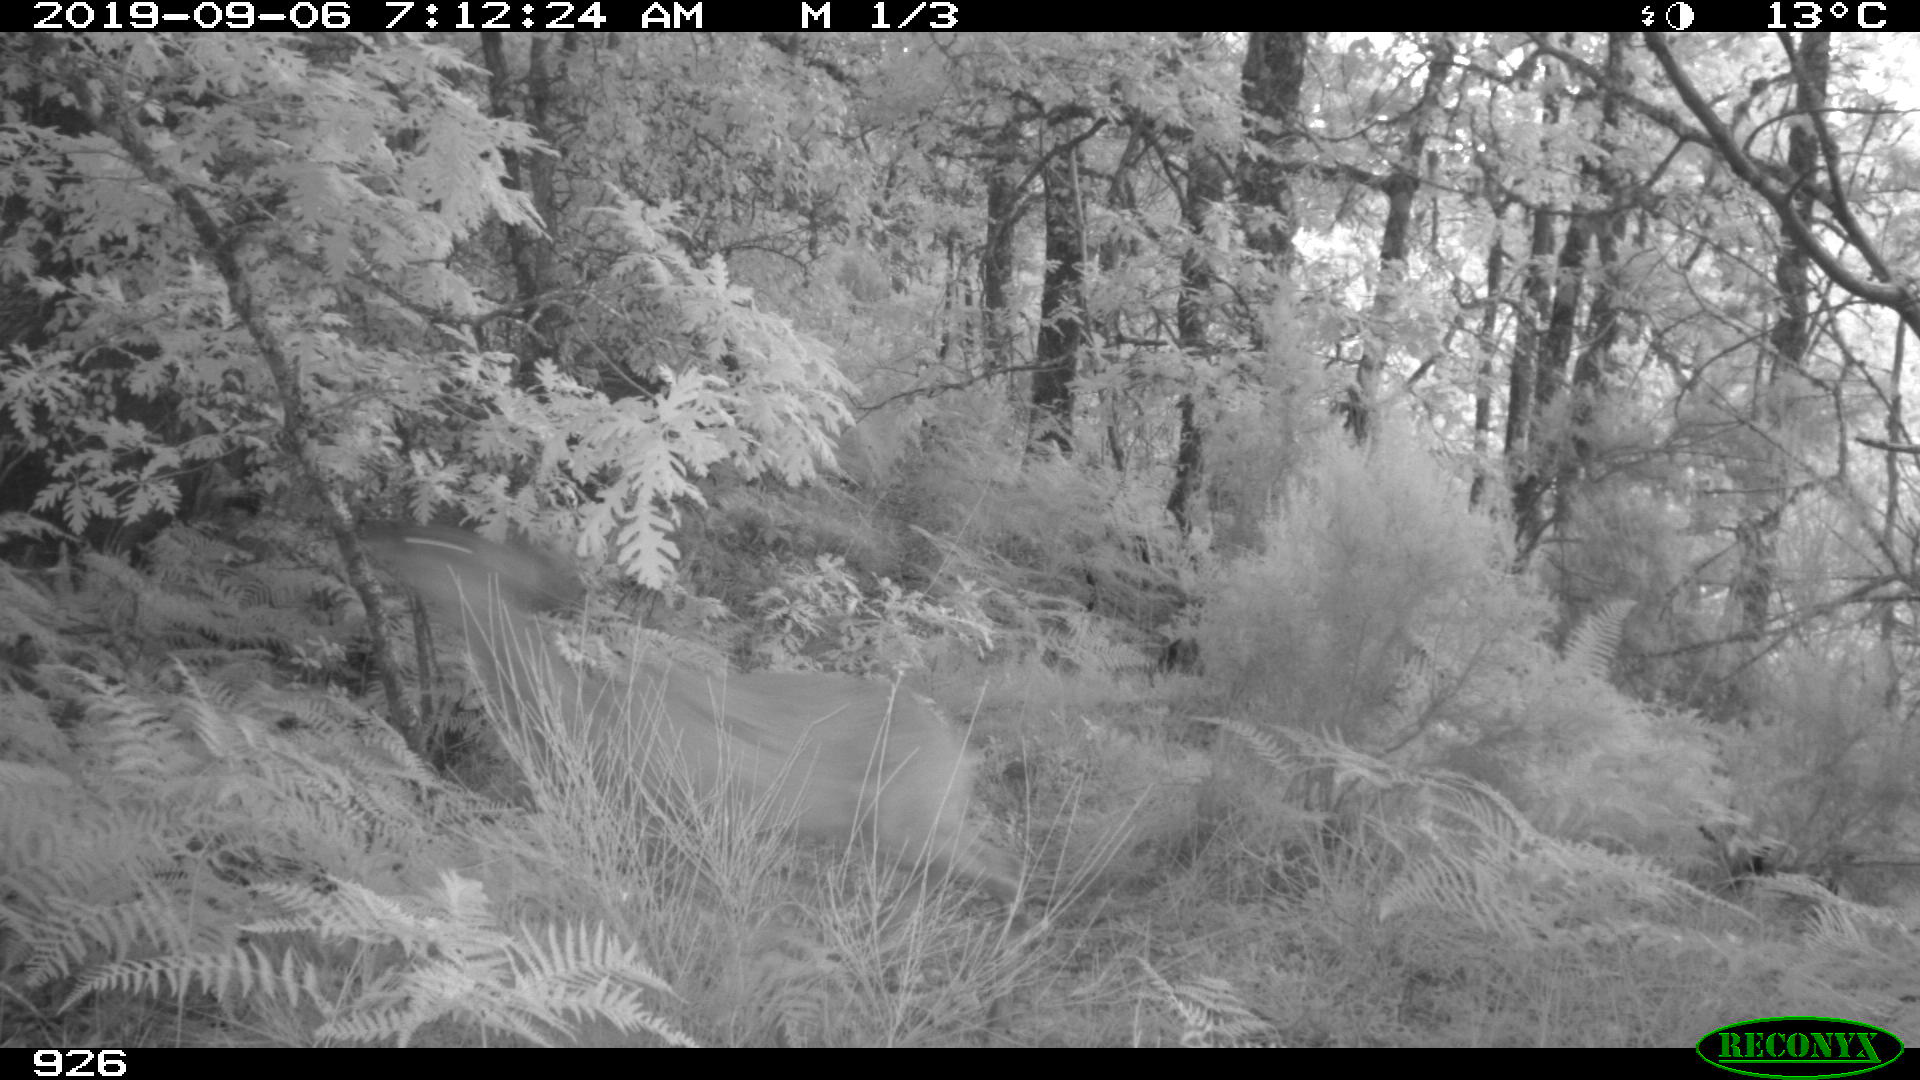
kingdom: Animalia
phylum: Chordata
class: Mammalia
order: Artiodactyla
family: Cervidae
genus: Capreolus
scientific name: Capreolus capreolus
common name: Western roe deer
